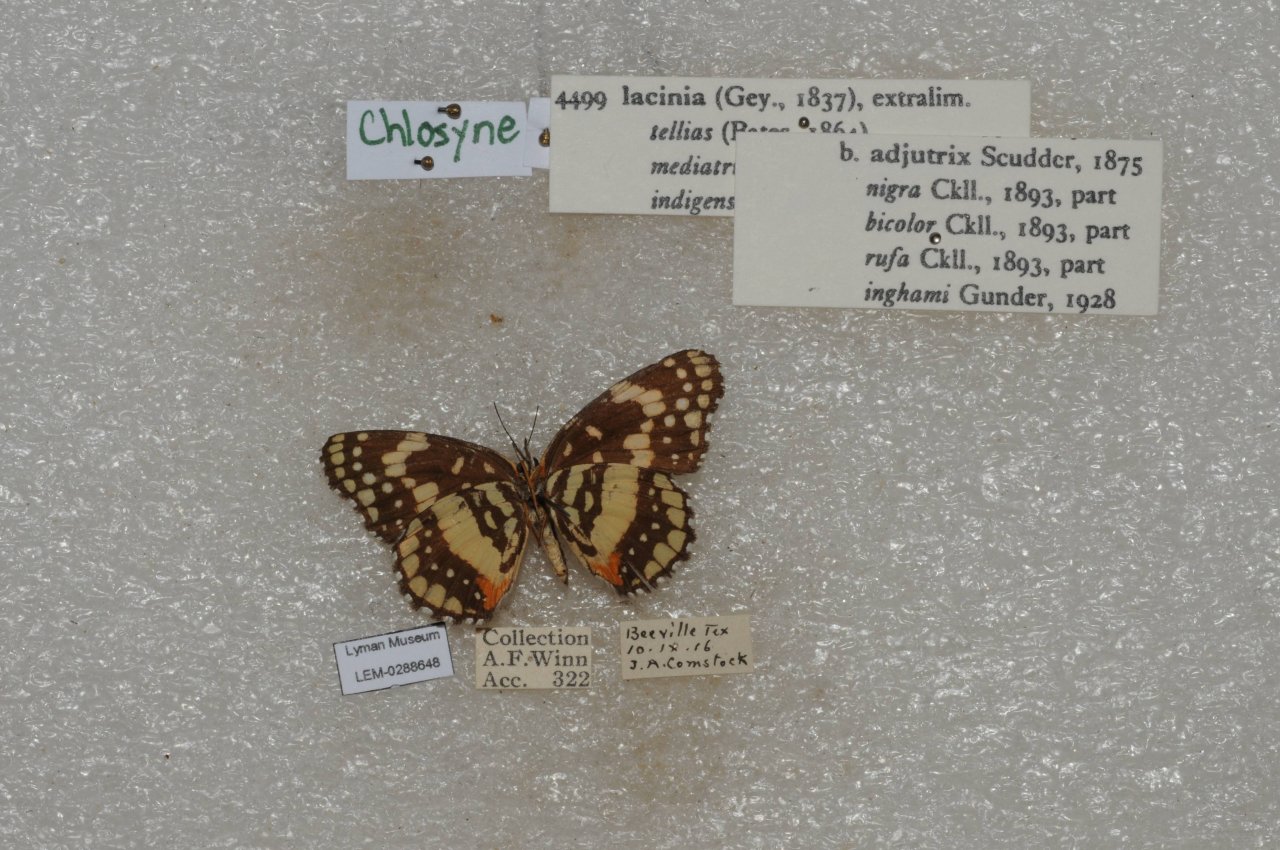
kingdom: Animalia
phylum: Arthropoda
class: Insecta
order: Lepidoptera
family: Nymphalidae
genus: Chlosyne
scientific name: Chlosyne lacinia
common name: Bordered Patch
